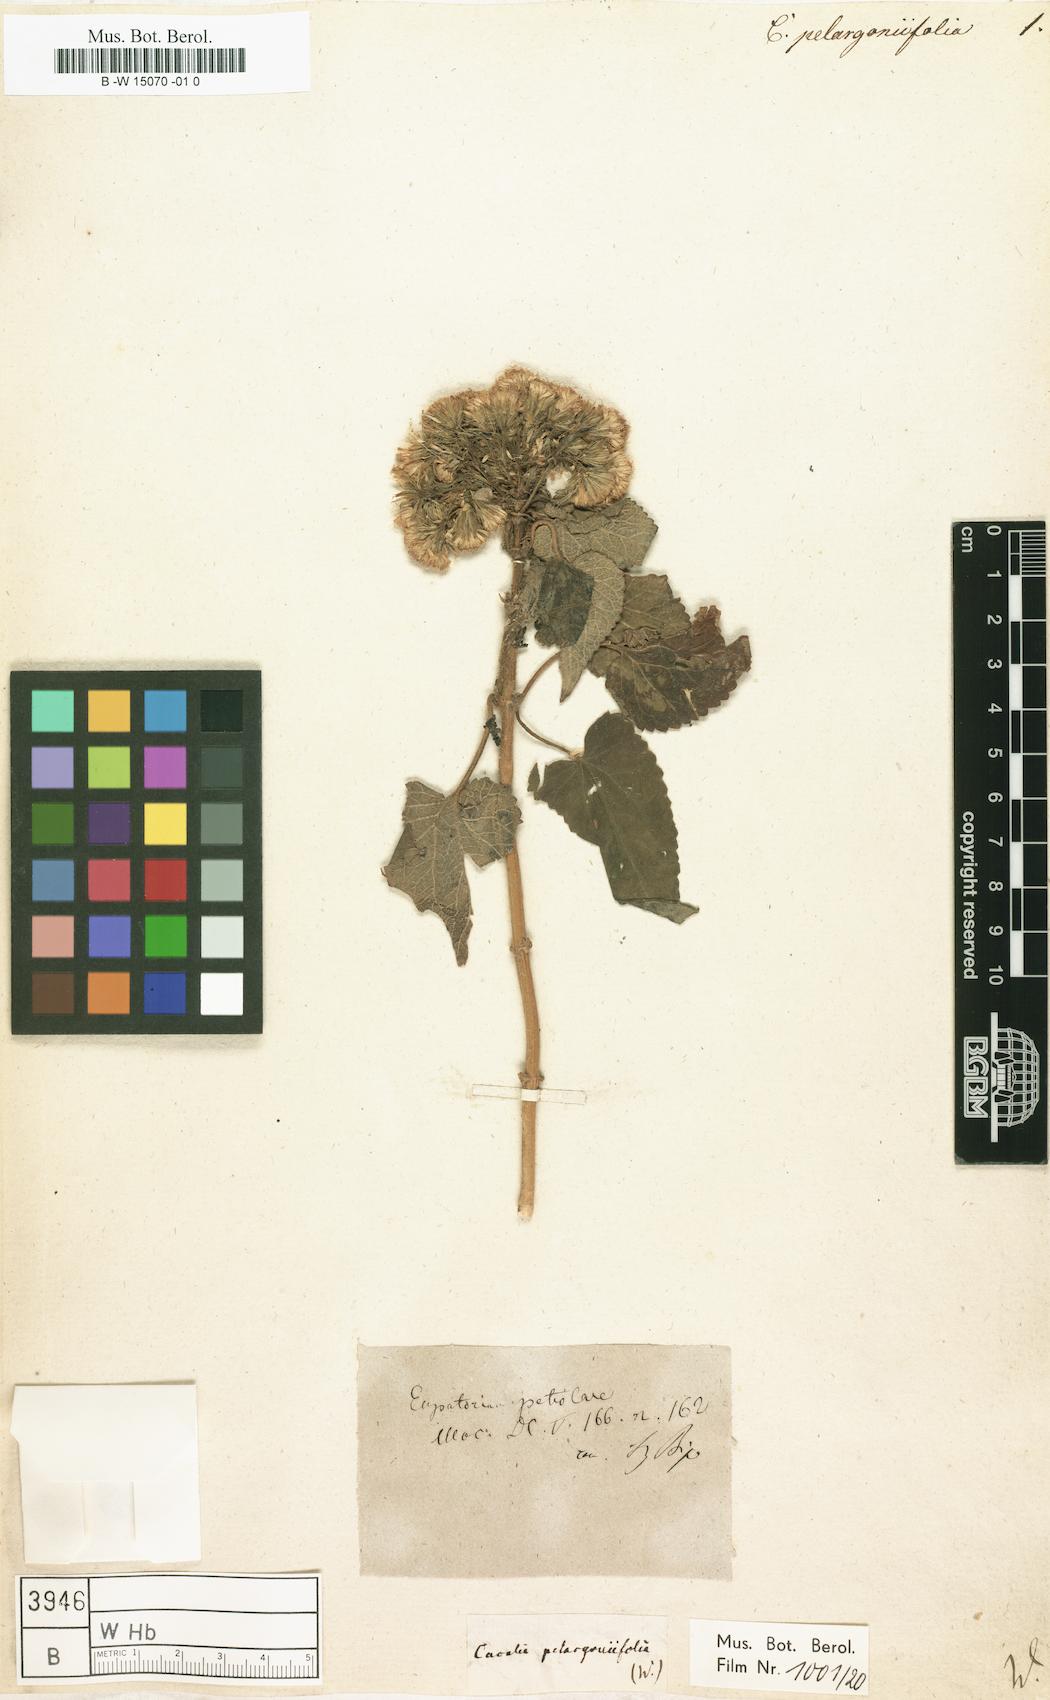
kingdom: Plantae
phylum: Tracheophyta
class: Magnoliopsida
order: Asterales
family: Asteraceae
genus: Cacalia
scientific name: Cacalia
